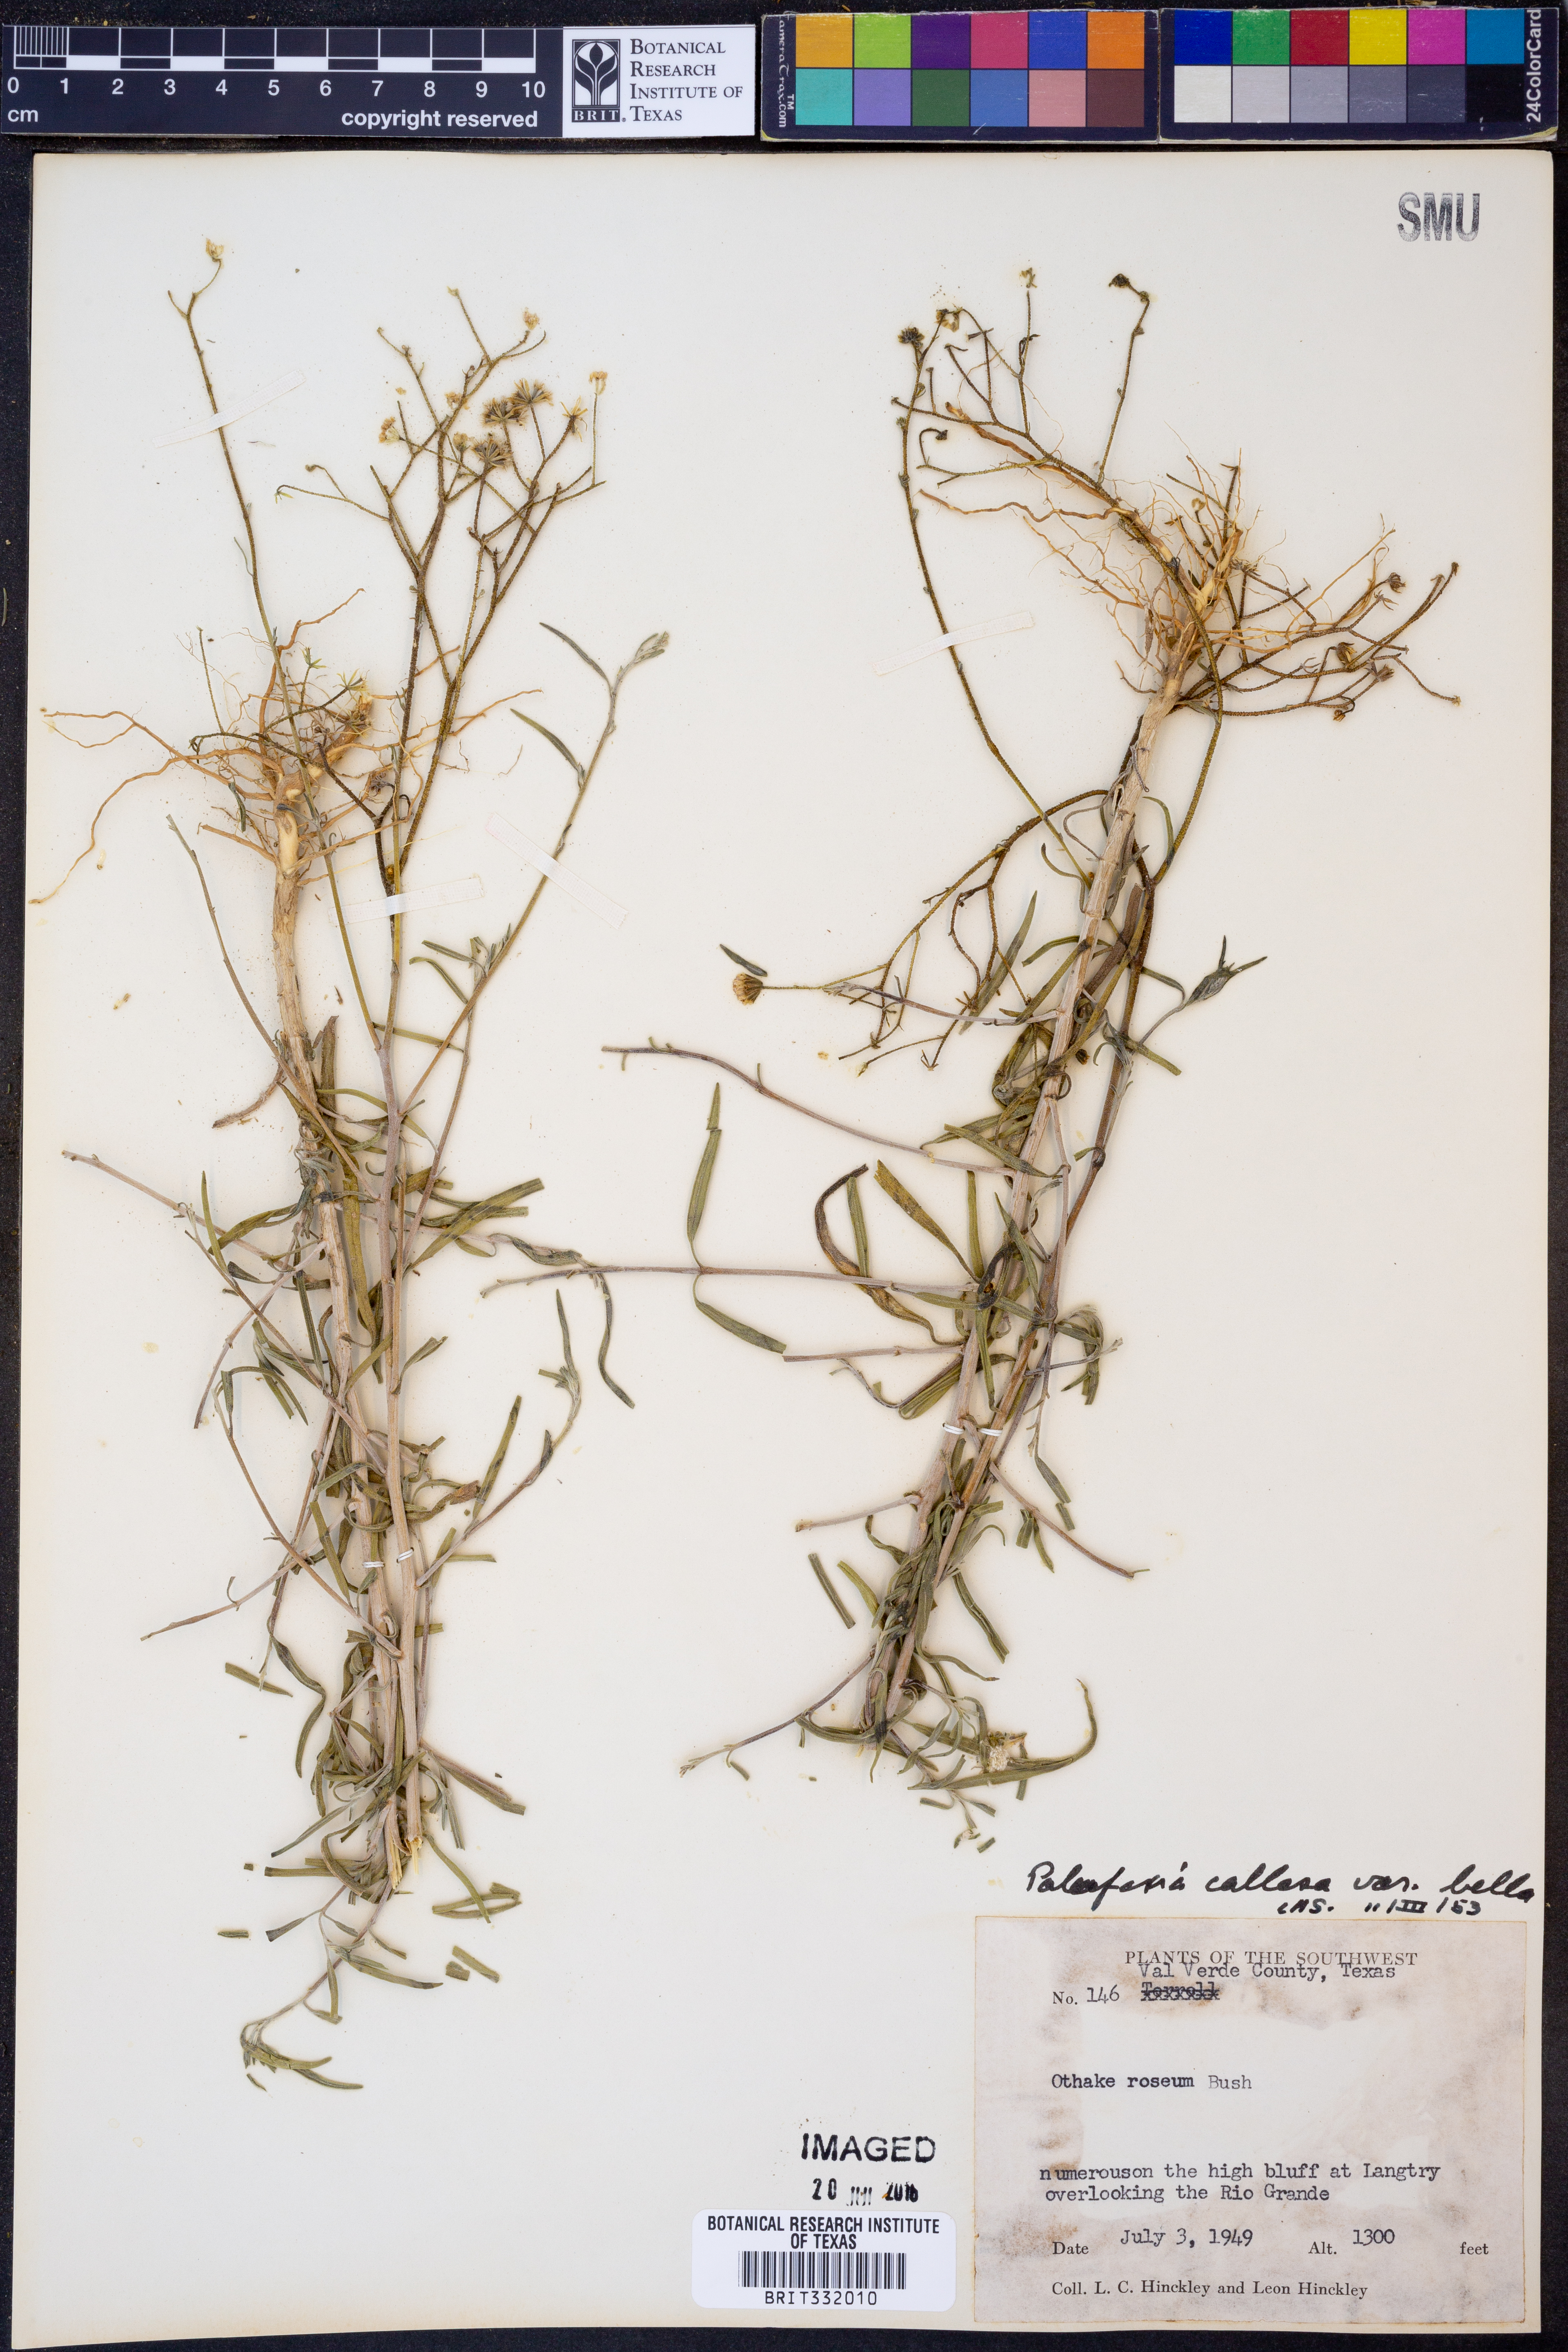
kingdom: Plantae
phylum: Tracheophyta
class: Magnoliopsida
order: Asterales
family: Asteraceae
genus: Palafoxia
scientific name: Palafoxia callosa
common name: Small palafox
